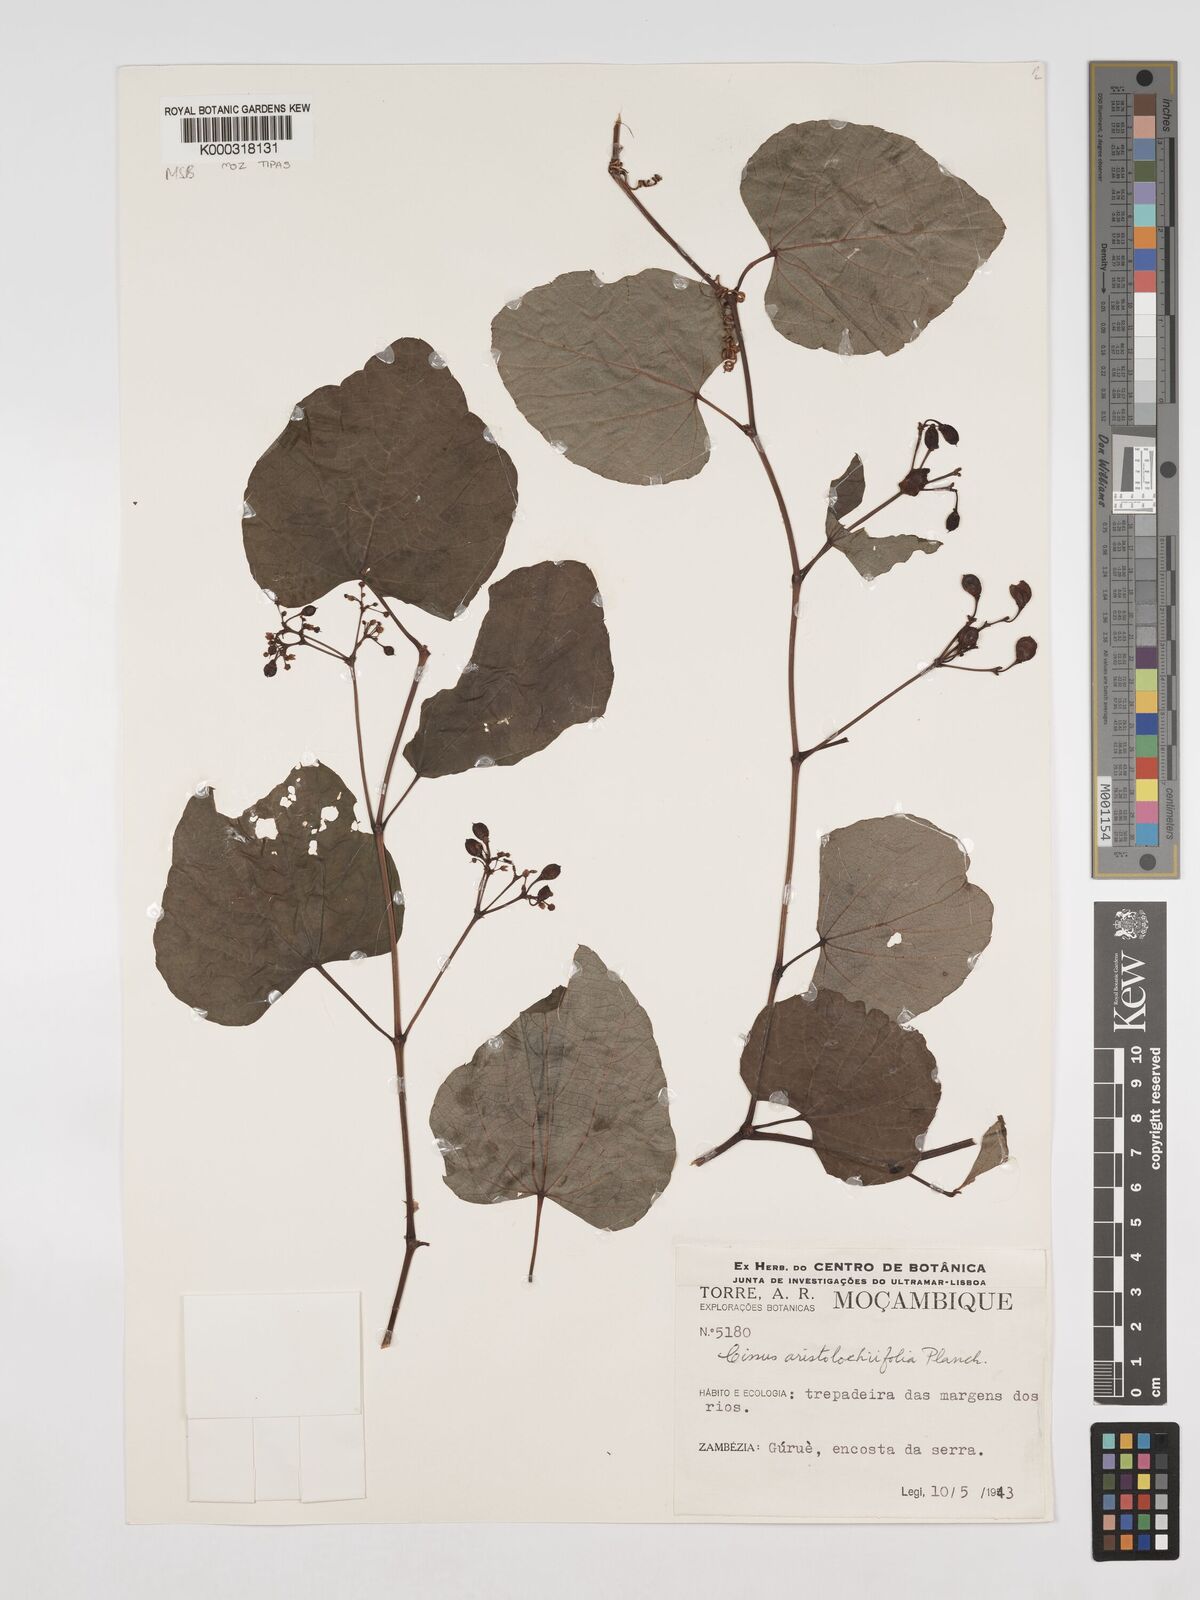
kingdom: Plantae
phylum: Tracheophyta
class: Magnoliopsida
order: Vitales
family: Vitaceae
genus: Cissus
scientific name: Cissus aristolochiifolia
